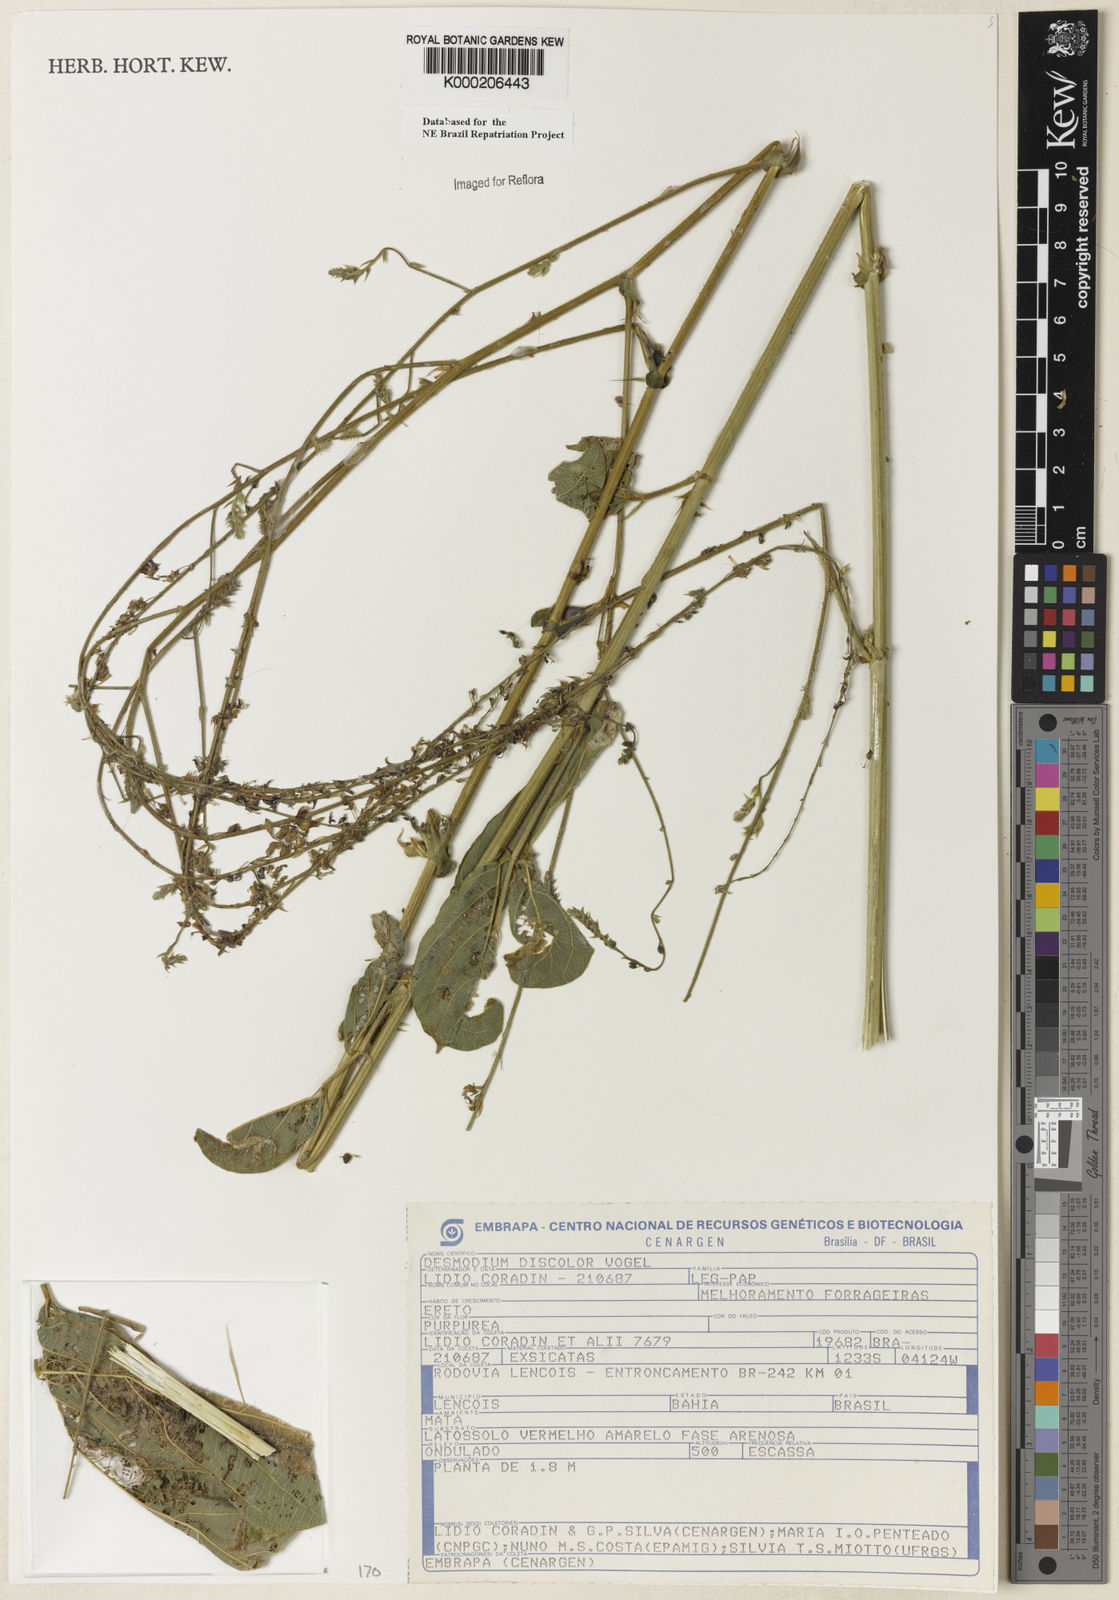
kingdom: Plantae
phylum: Tracheophyta
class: Magnoliopsida
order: Fabales
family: Fabaceae
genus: Desmodium
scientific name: Desmodium subsecundum
